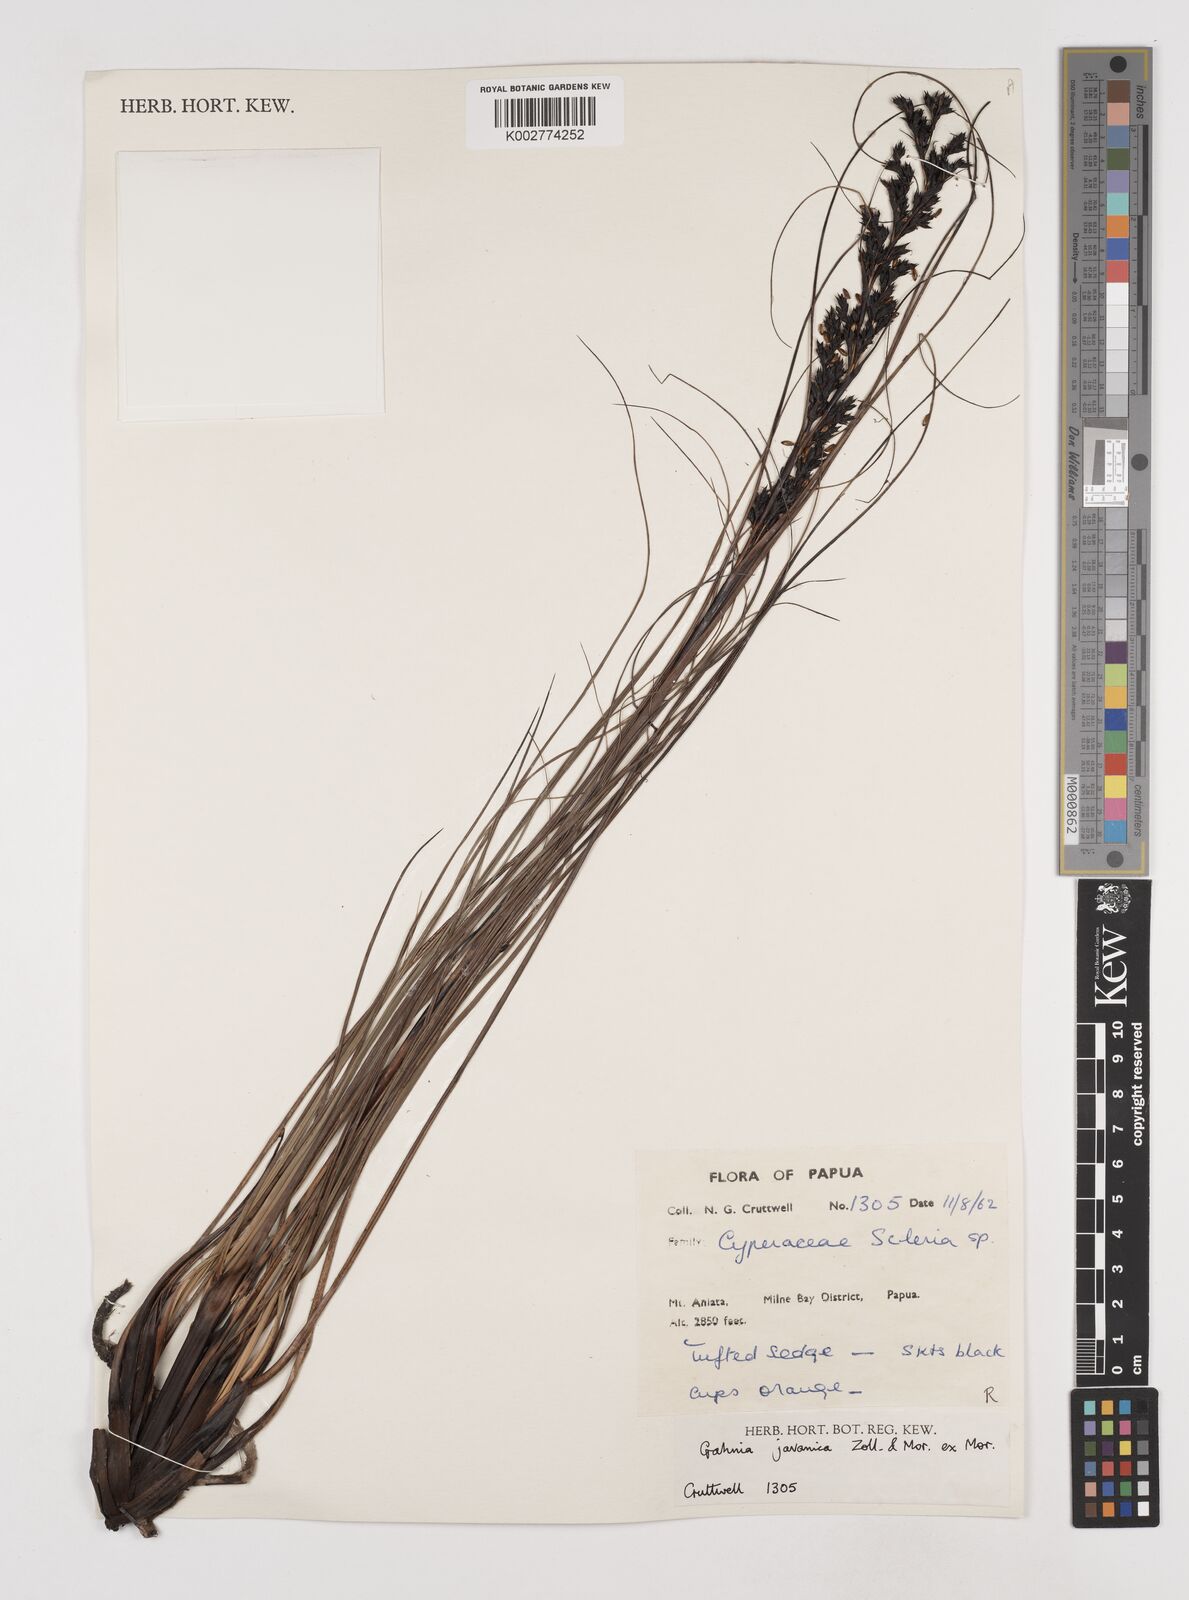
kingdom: Plantae
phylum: Tracheophyta
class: Liliopsida
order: Poales
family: Cyperaceae
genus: Gahnia
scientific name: Gahnia javanica
